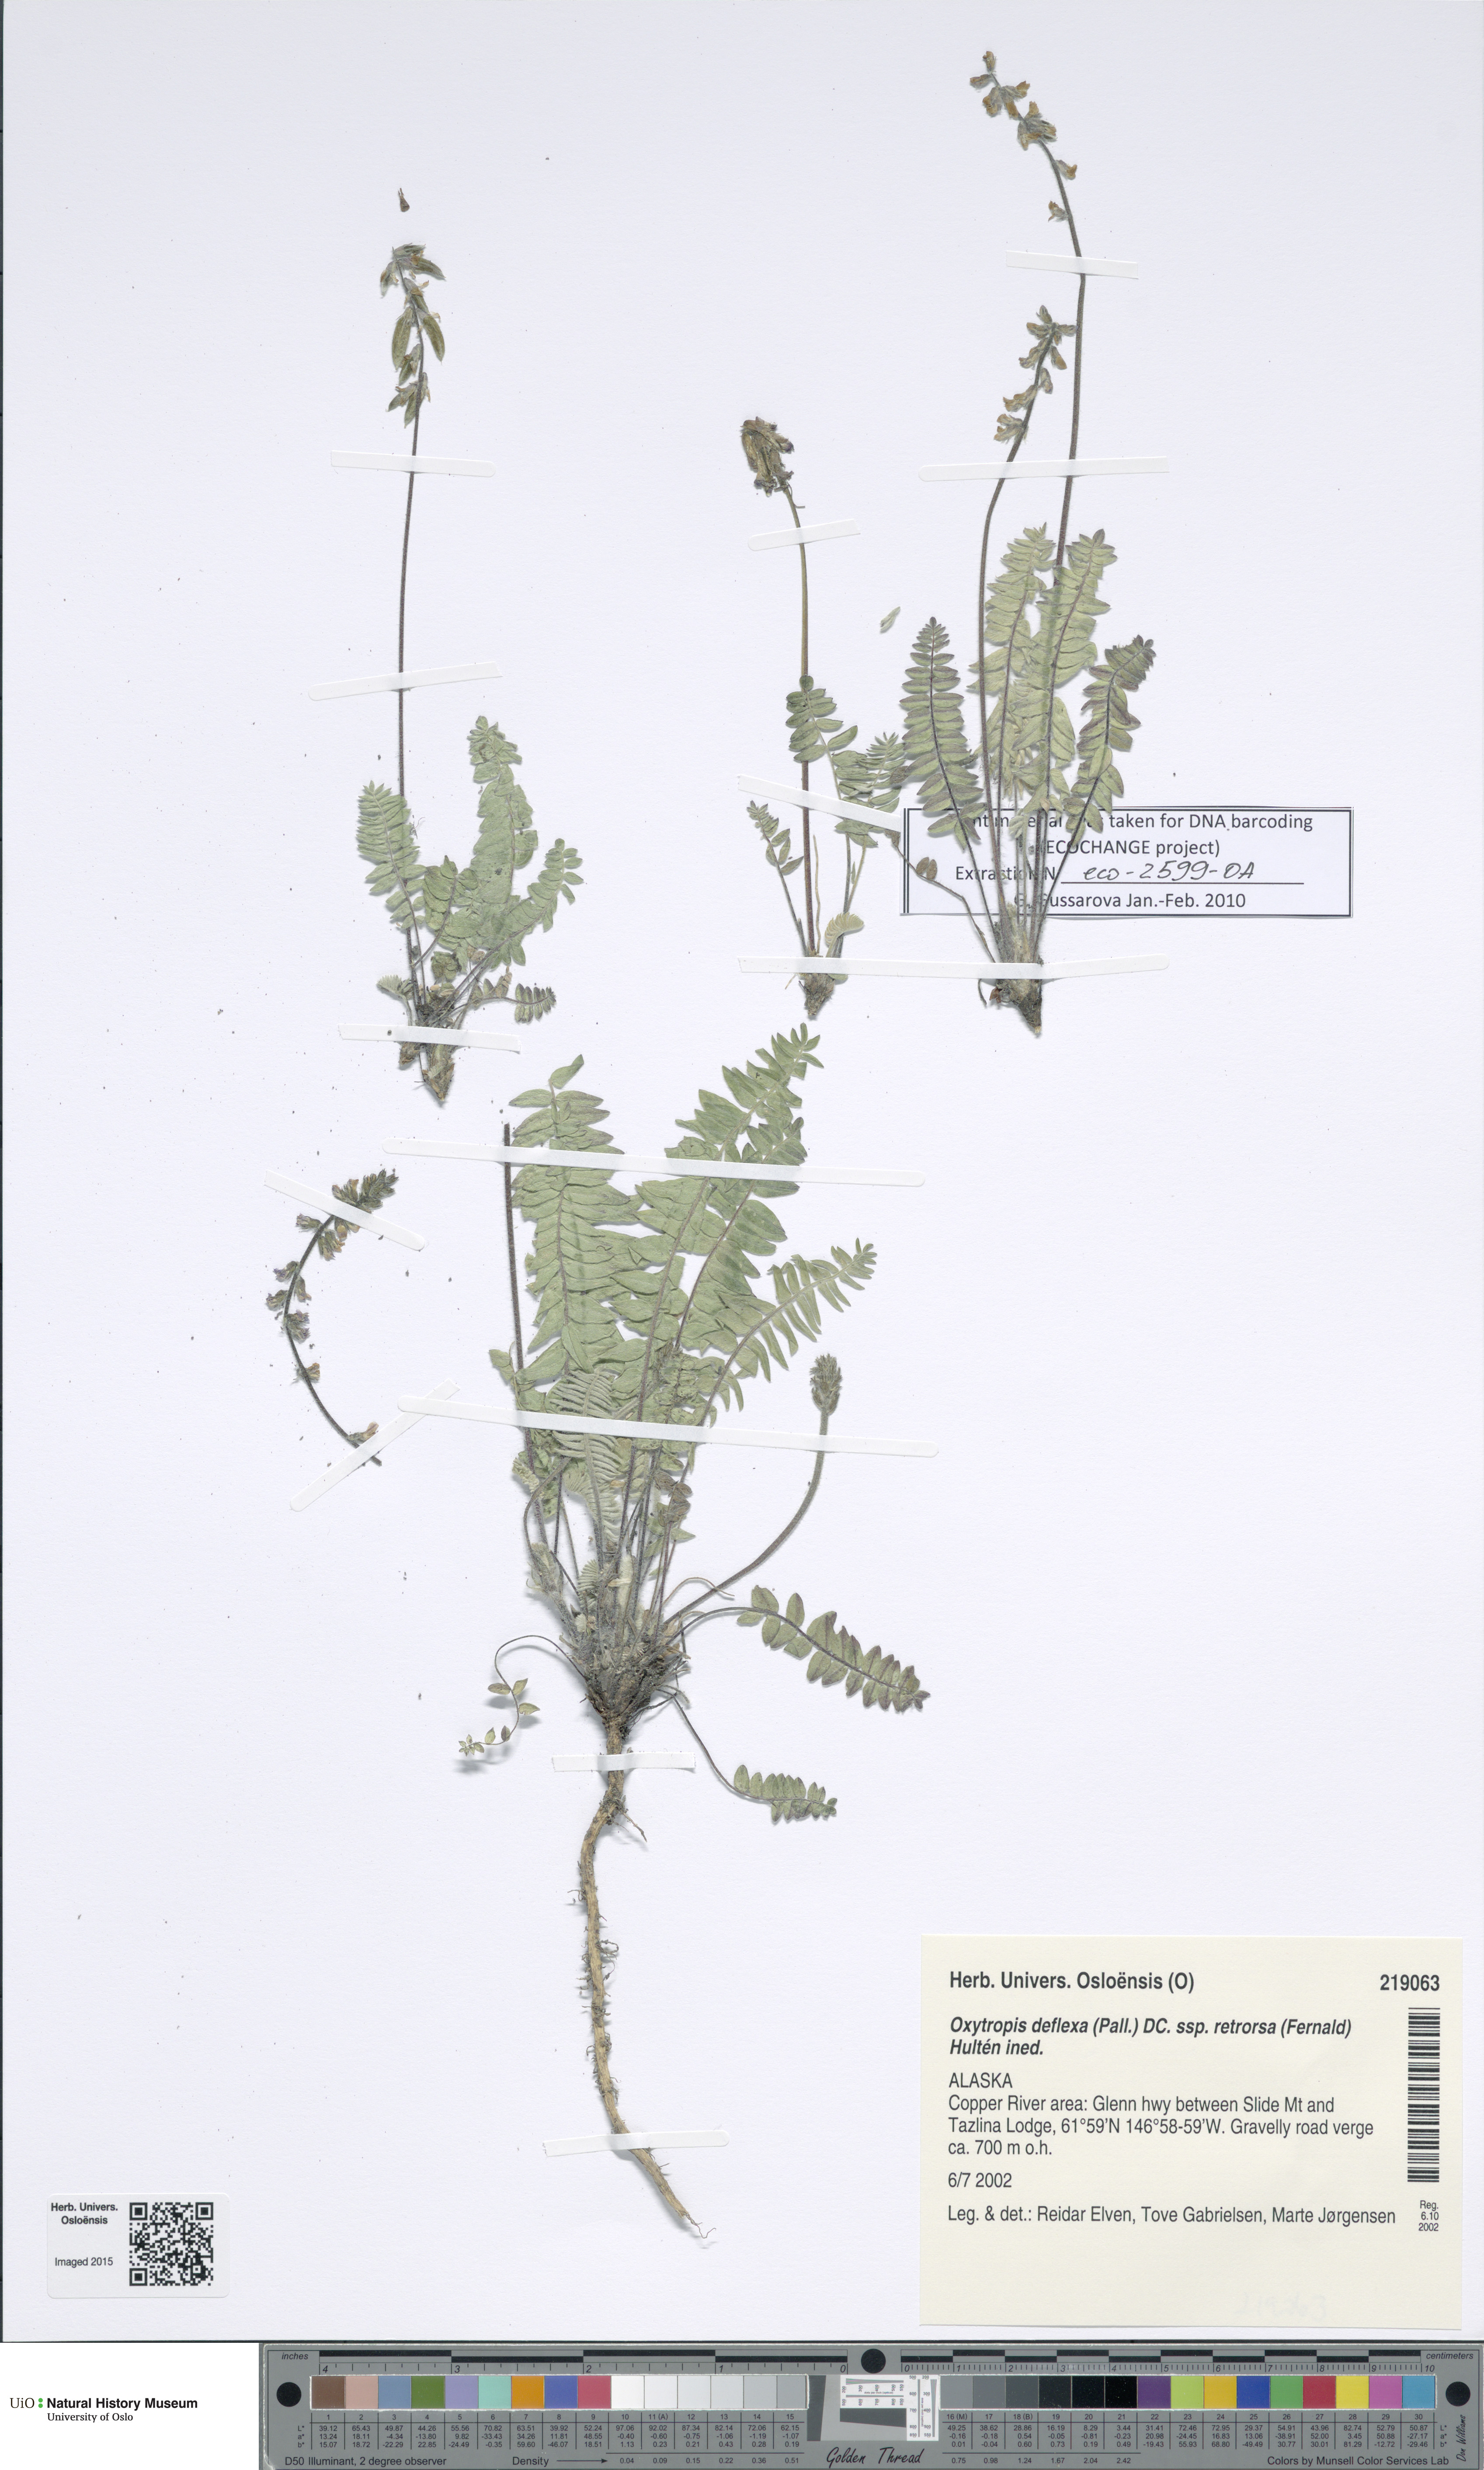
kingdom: Plantae
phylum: Tracheophyta
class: Magnoliopsida
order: Fabales
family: Fabaceae
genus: Oxytropis
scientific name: Oxytropis deflexa
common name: Stemmed oxytrope
